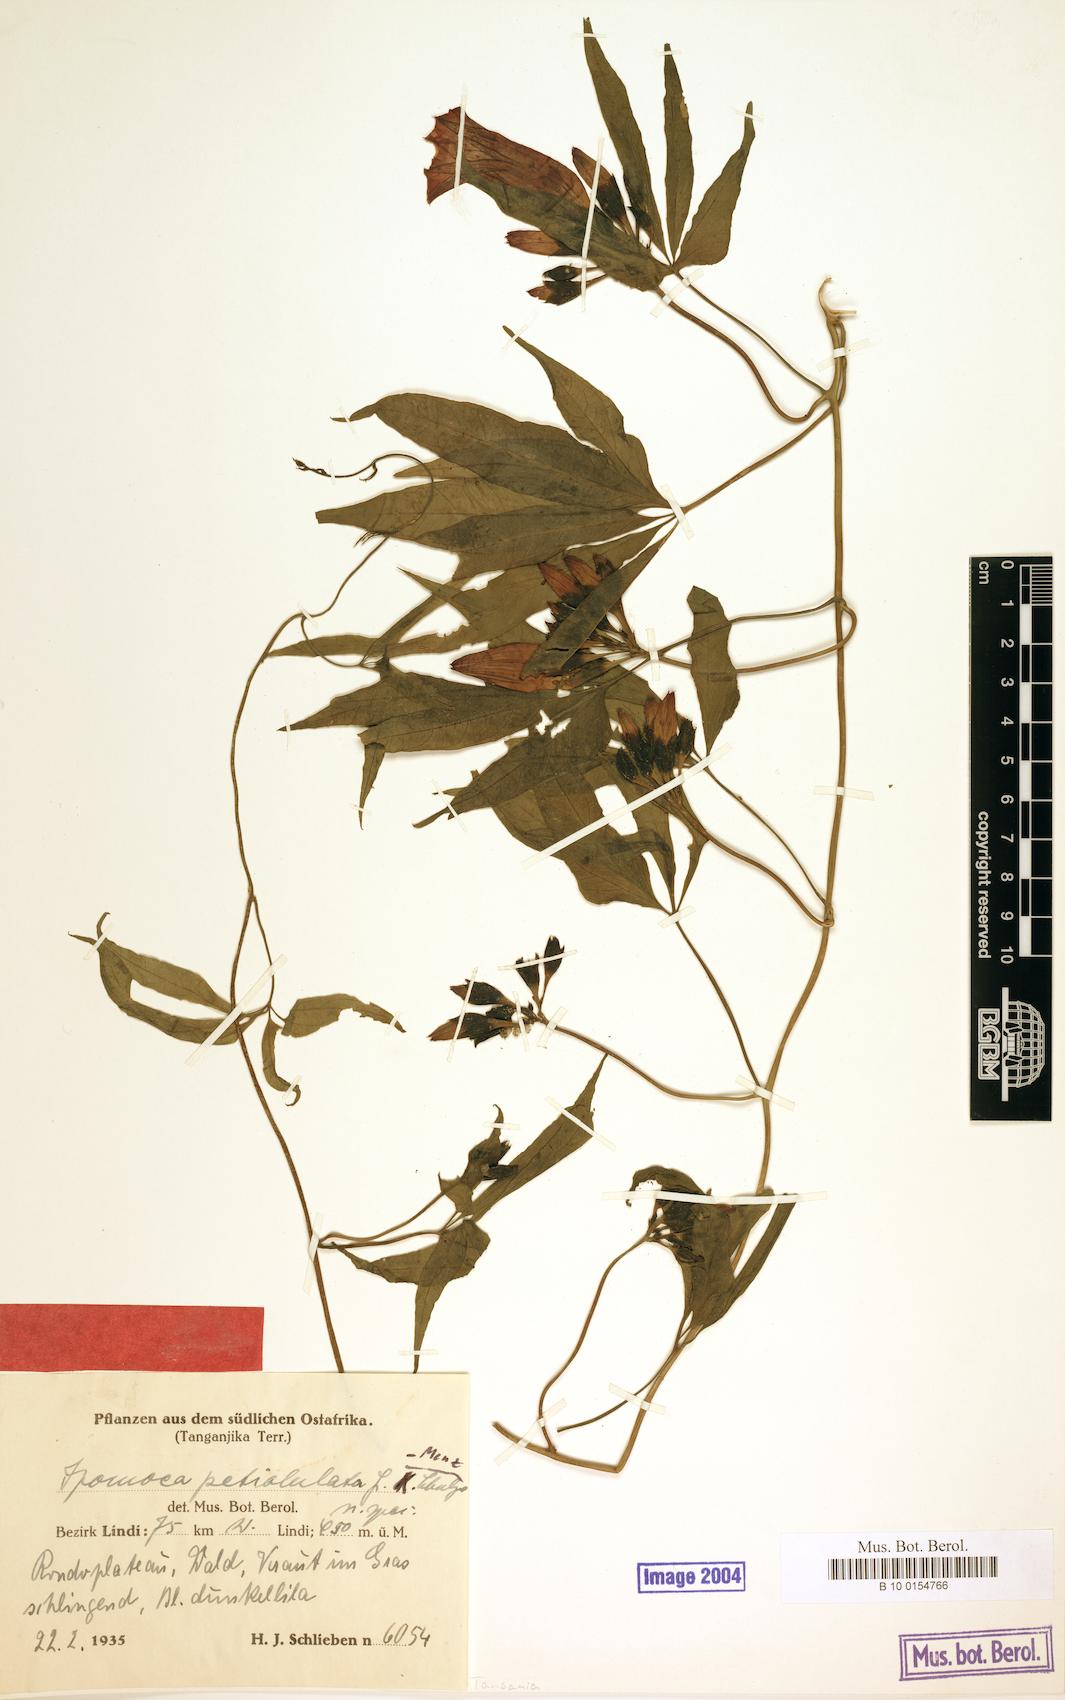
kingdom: Plantae
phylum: Tracheophyta
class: Magnoliopsida
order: Solanales
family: Convolvulaceae
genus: Ipomoea
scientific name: Ipomoea venosa
